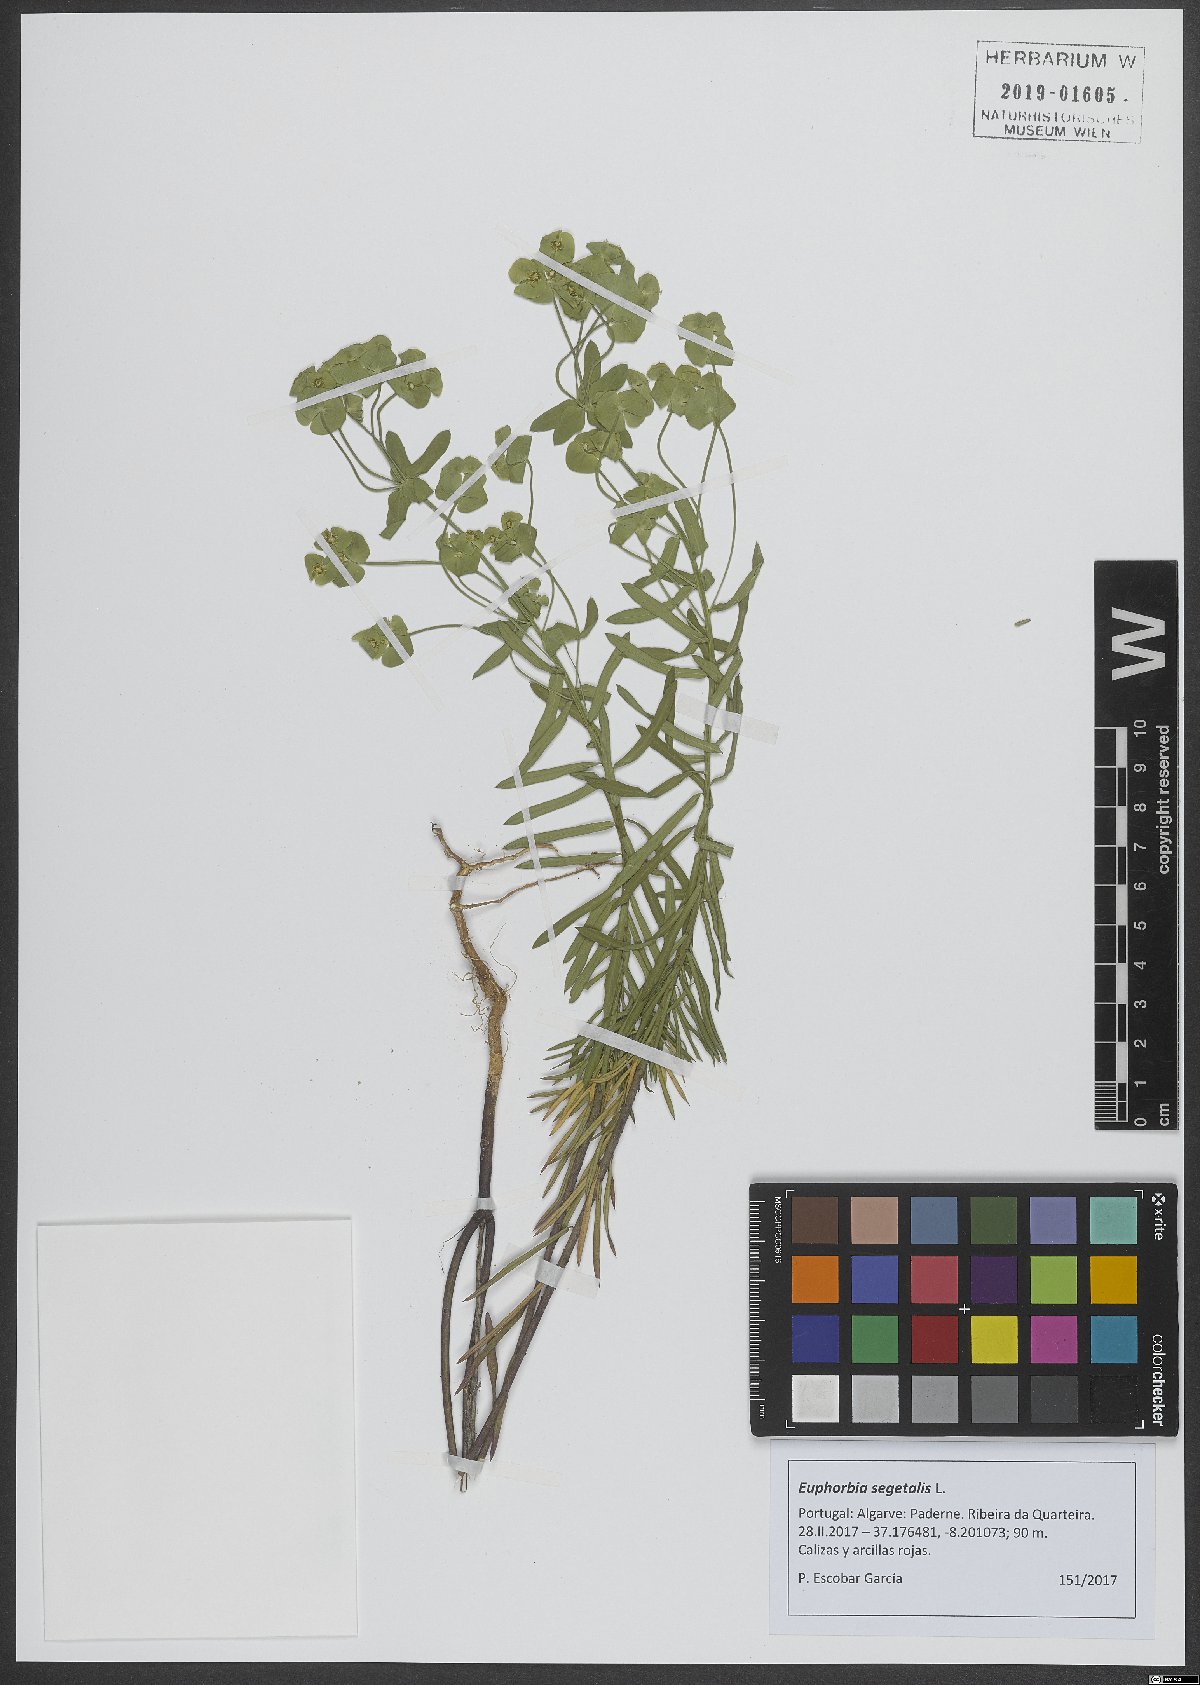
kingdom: Plantae
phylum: Tracheophyta
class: Magnoliopsida
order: Malpighiales
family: Euphorbiaceae
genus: Euphorbia
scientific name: Euphorbia segetalis
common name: Corn spurge
